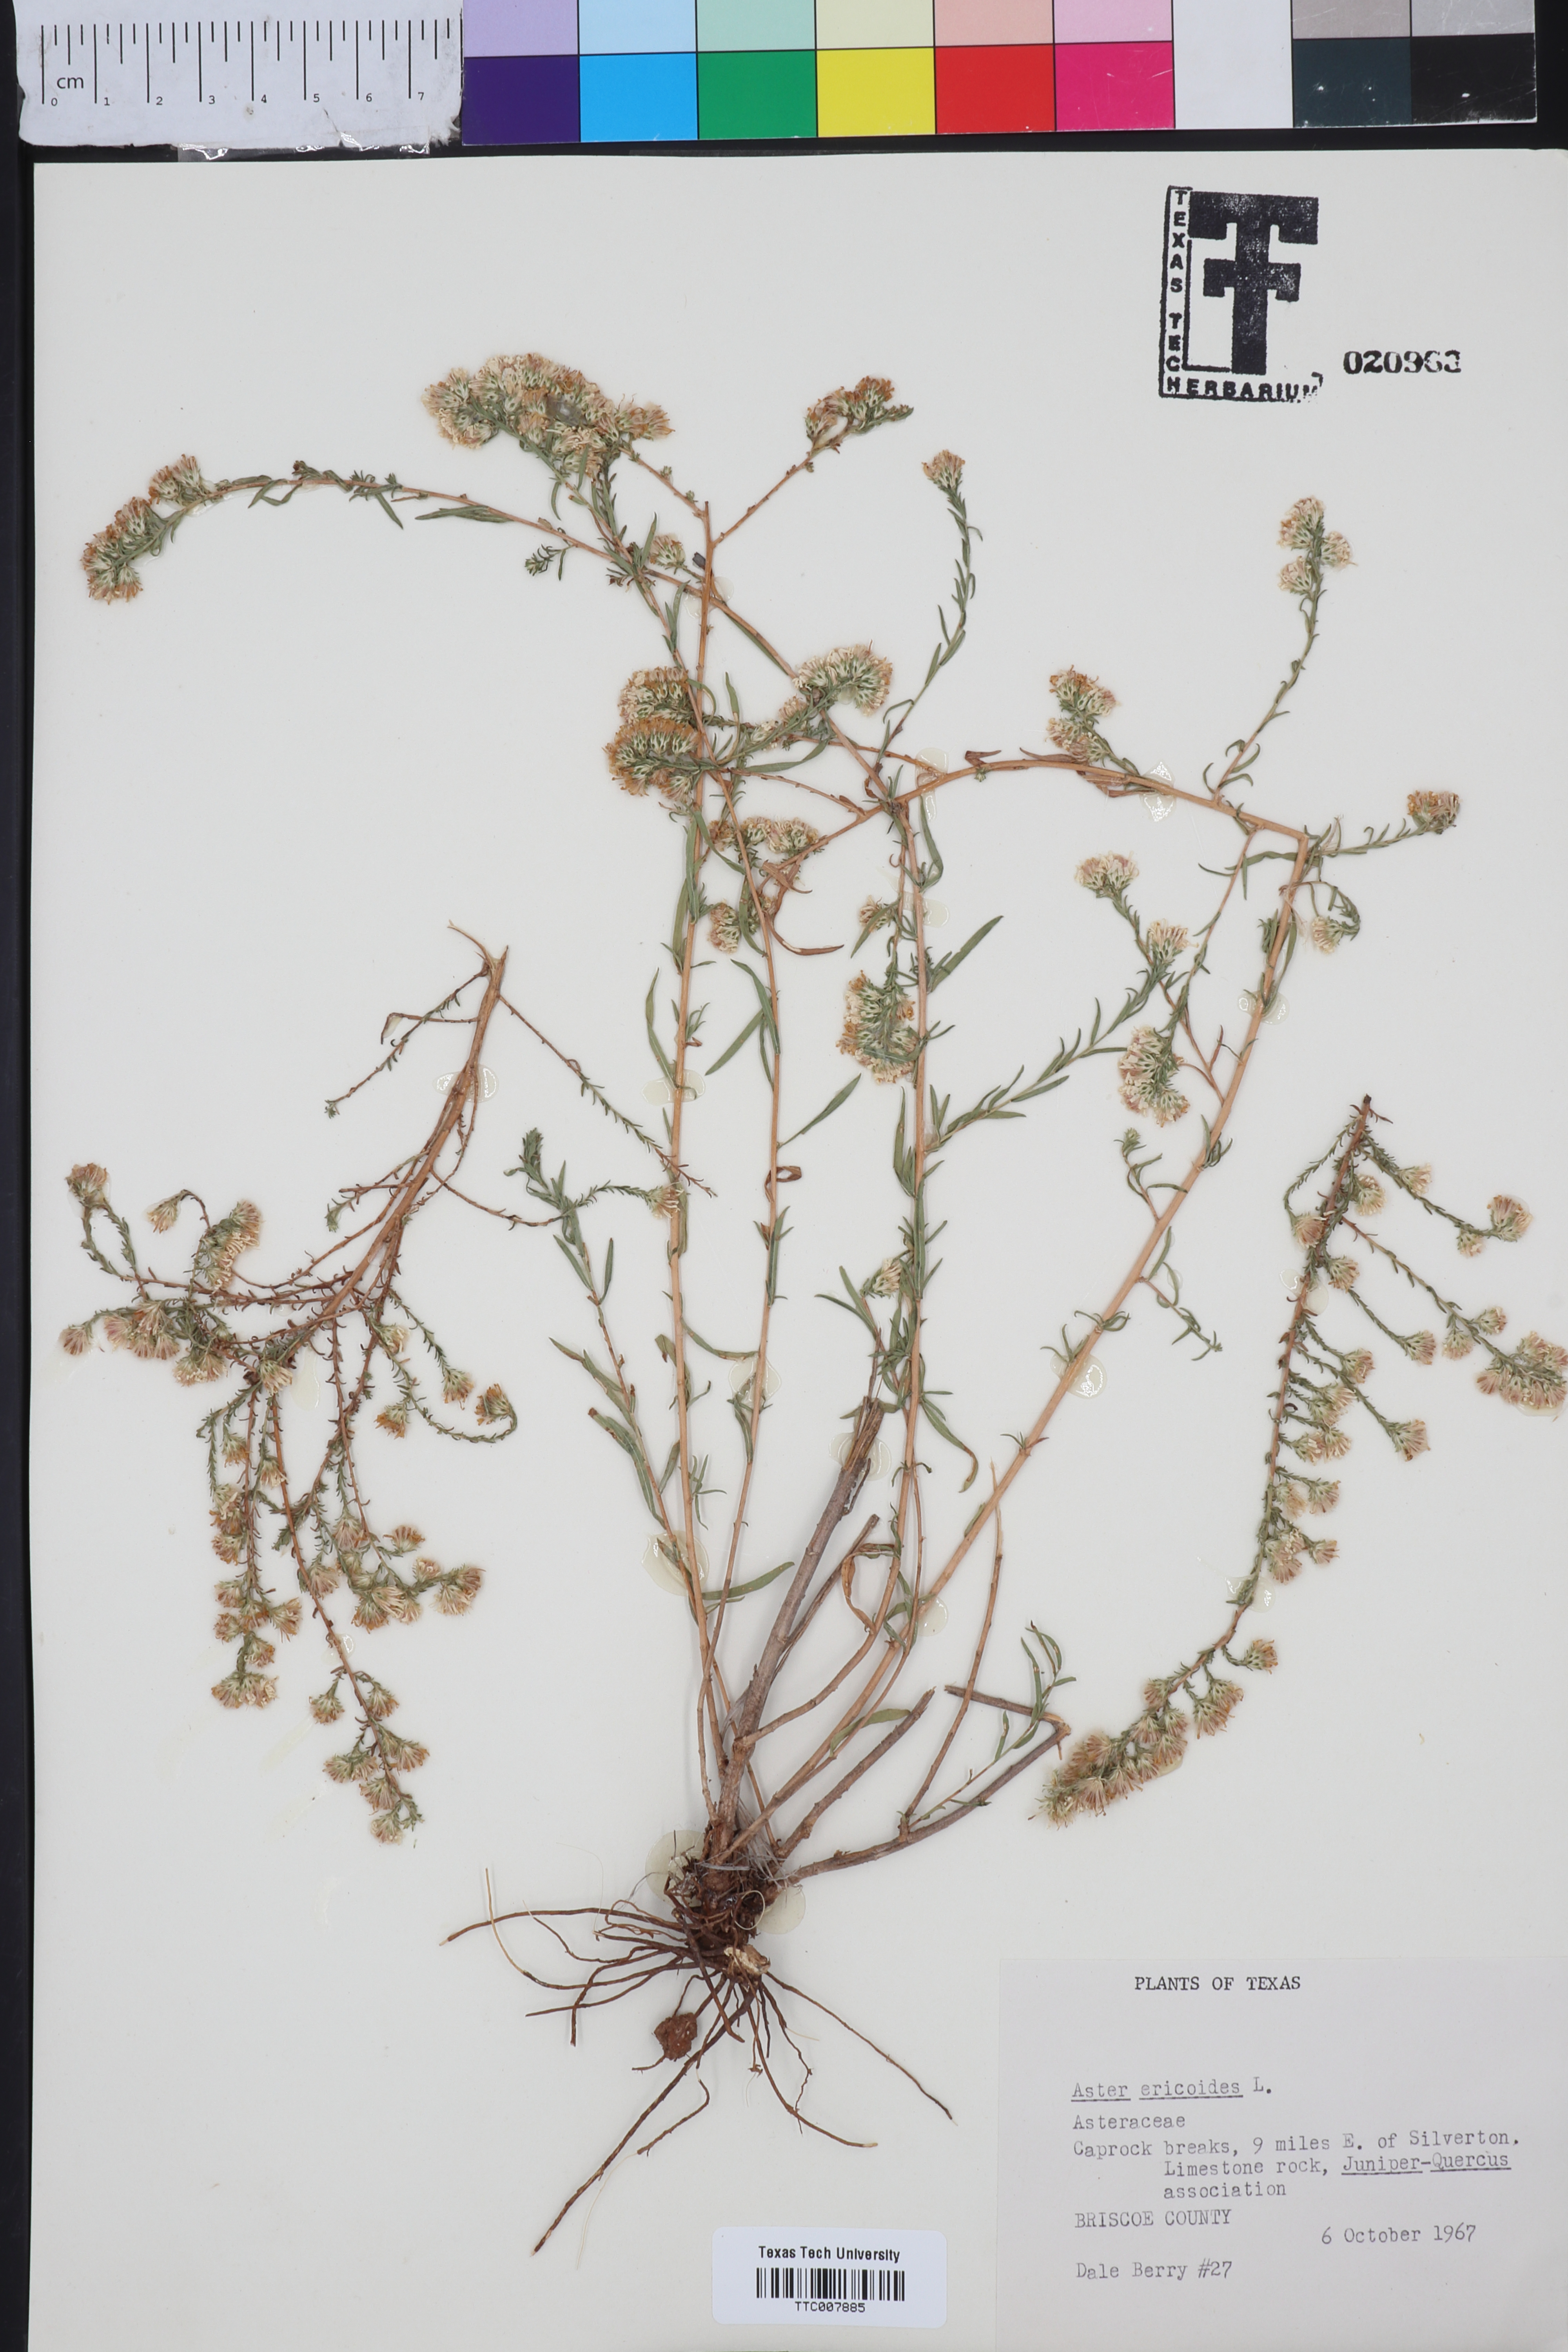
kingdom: Plantae
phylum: Tracheophyta
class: Magnoliopsida
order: Asterales
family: Asteraceae
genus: Symphyotrichum
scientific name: Symphyotrichum ericoides
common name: Heath aster
